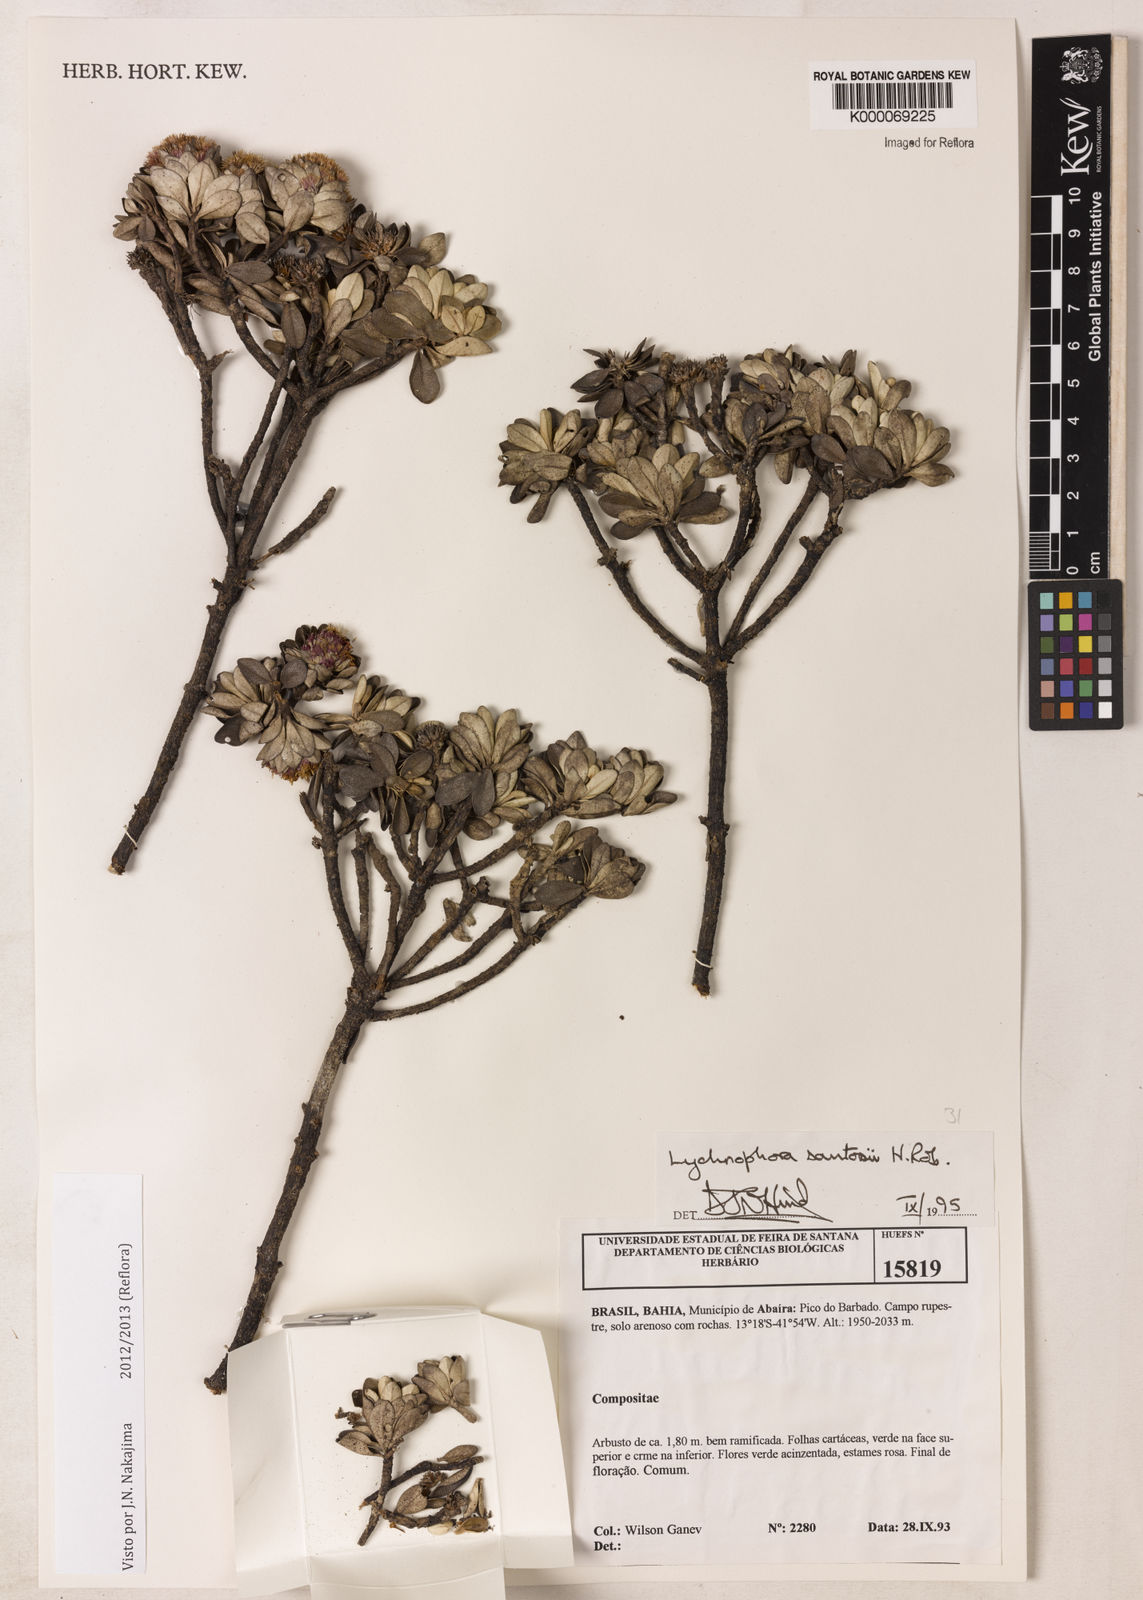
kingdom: Plantae
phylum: Tracheophyta
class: Magnoliopsida
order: Asterales
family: Asteraceae
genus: Lychnophorella
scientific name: Lychnophorella santosii
